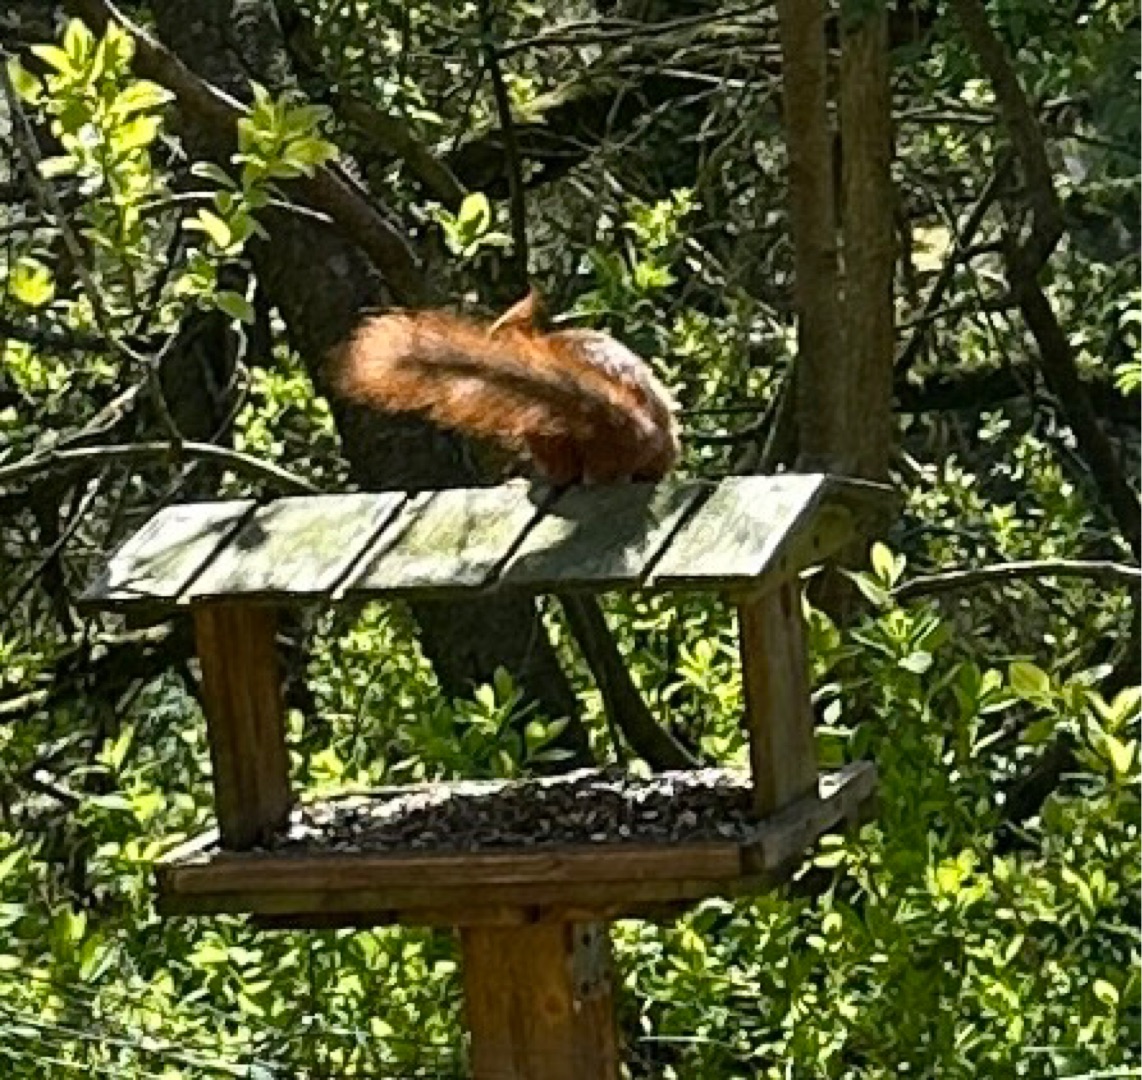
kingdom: Animalia
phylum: Chordata
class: Mammalia
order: Rodentia
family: Sciuridae
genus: Sciurus
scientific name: Sciurus vulgaris
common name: Egern
